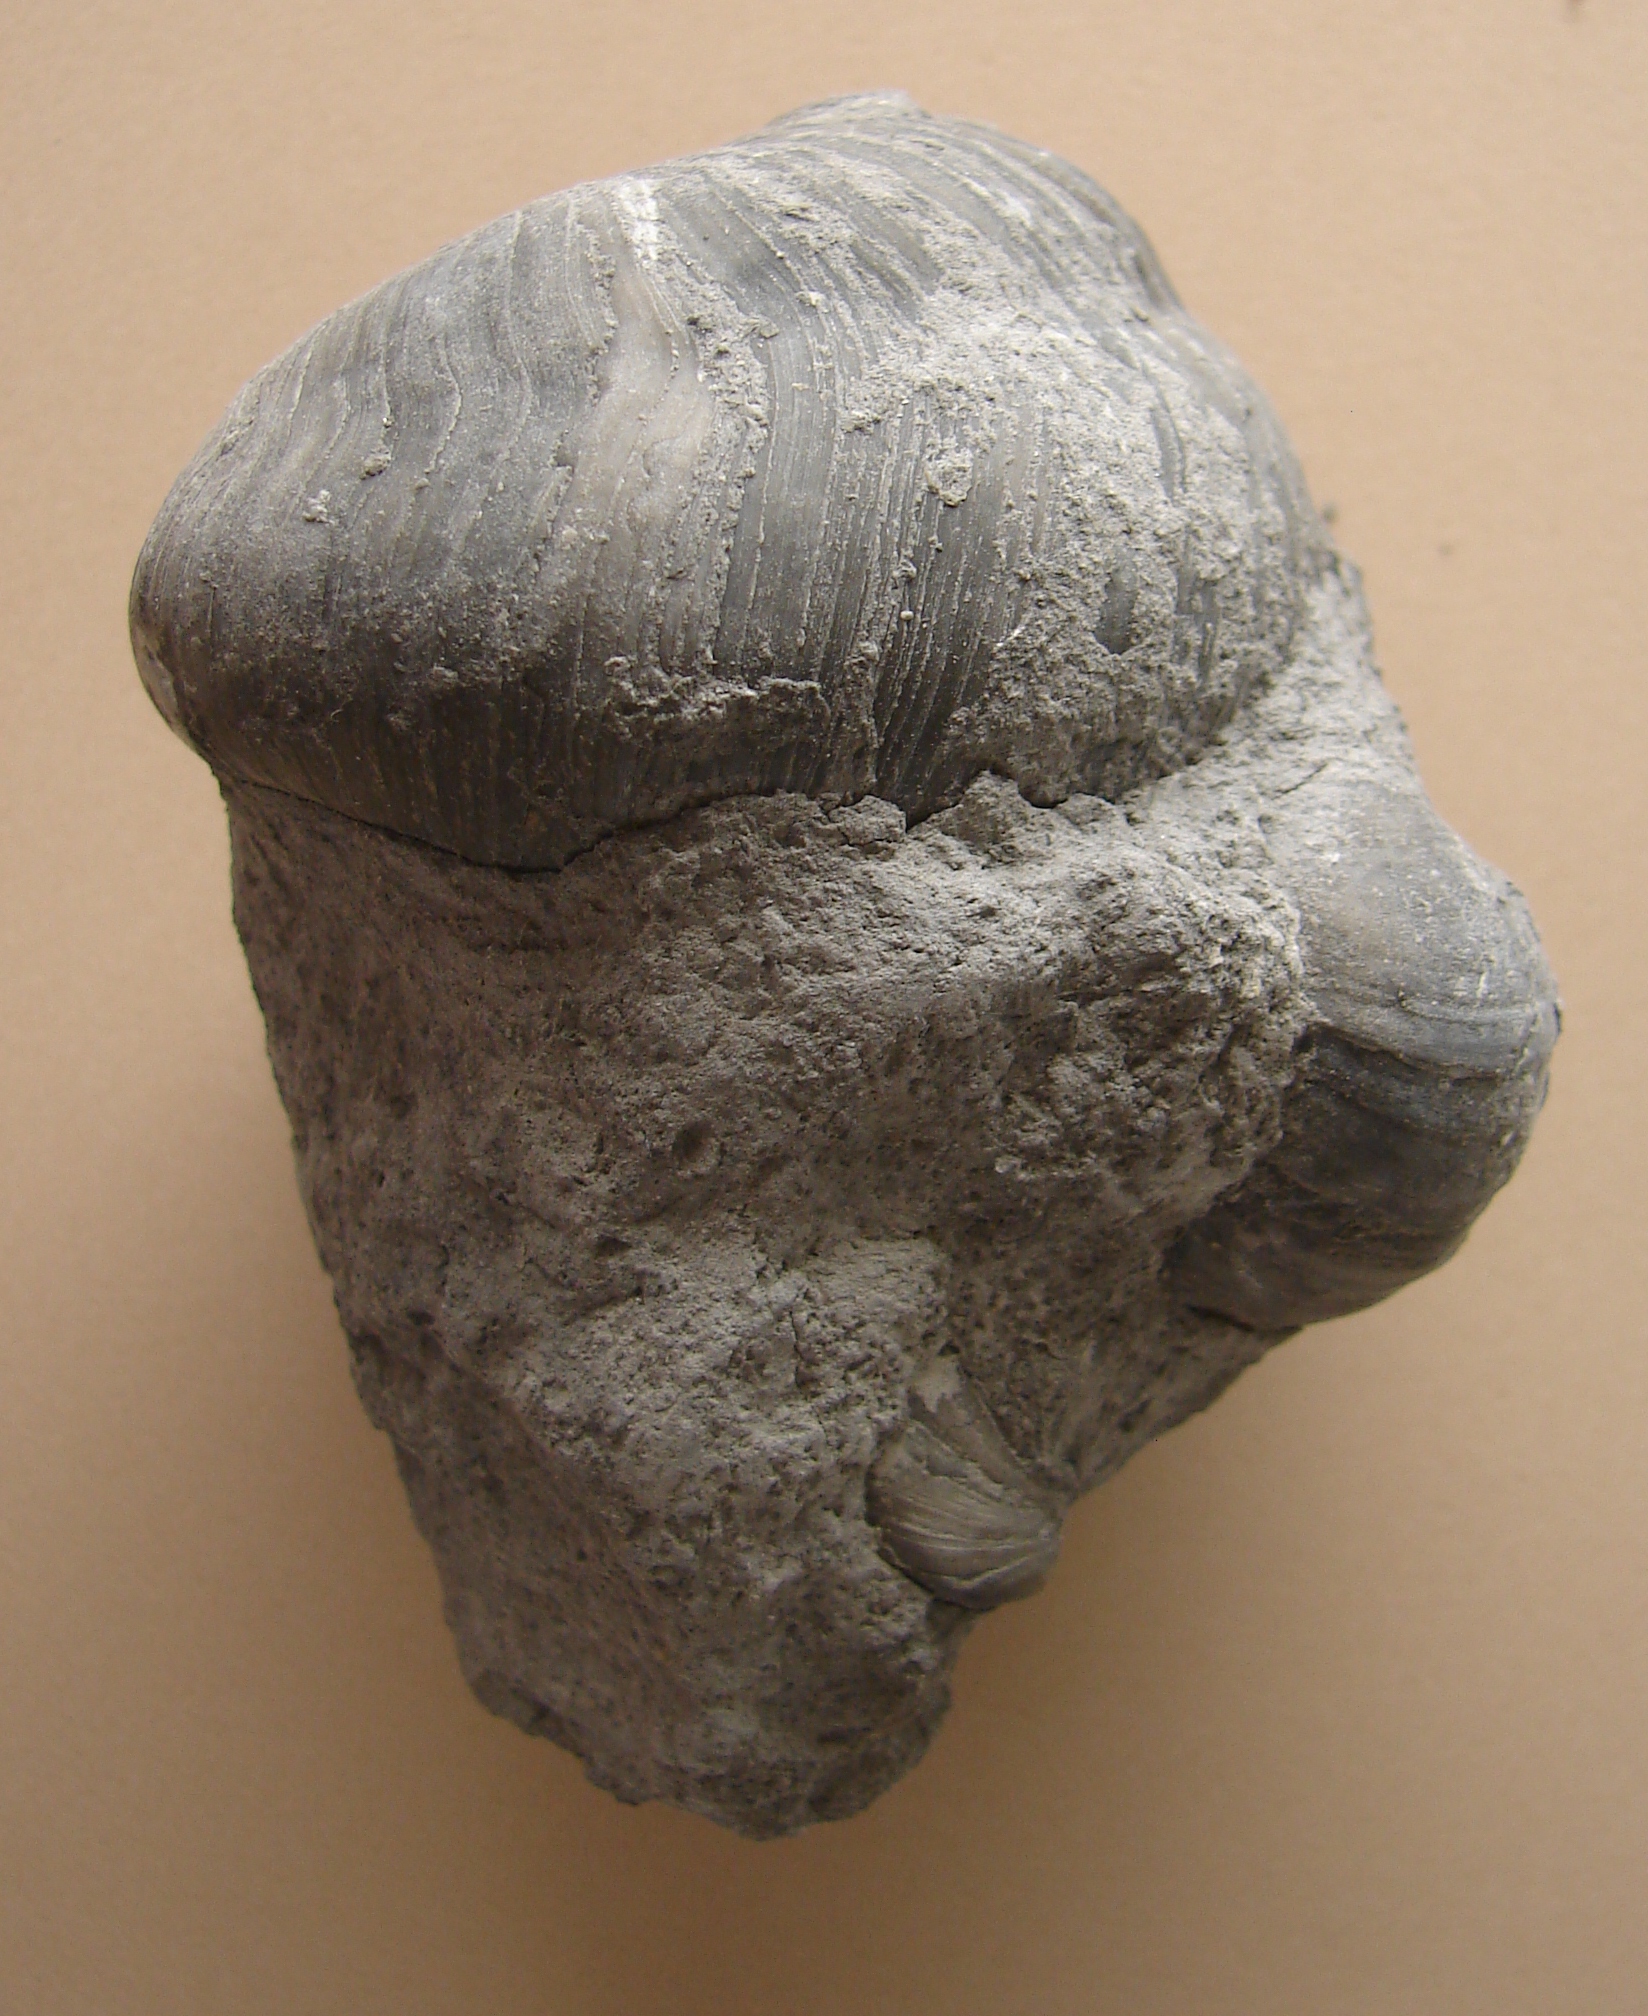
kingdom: Animalia
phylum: Mollusca
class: Bivalvia
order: Ostreida
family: Gryphaeidae
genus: Gryphaea
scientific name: Gryphaea arcuata
